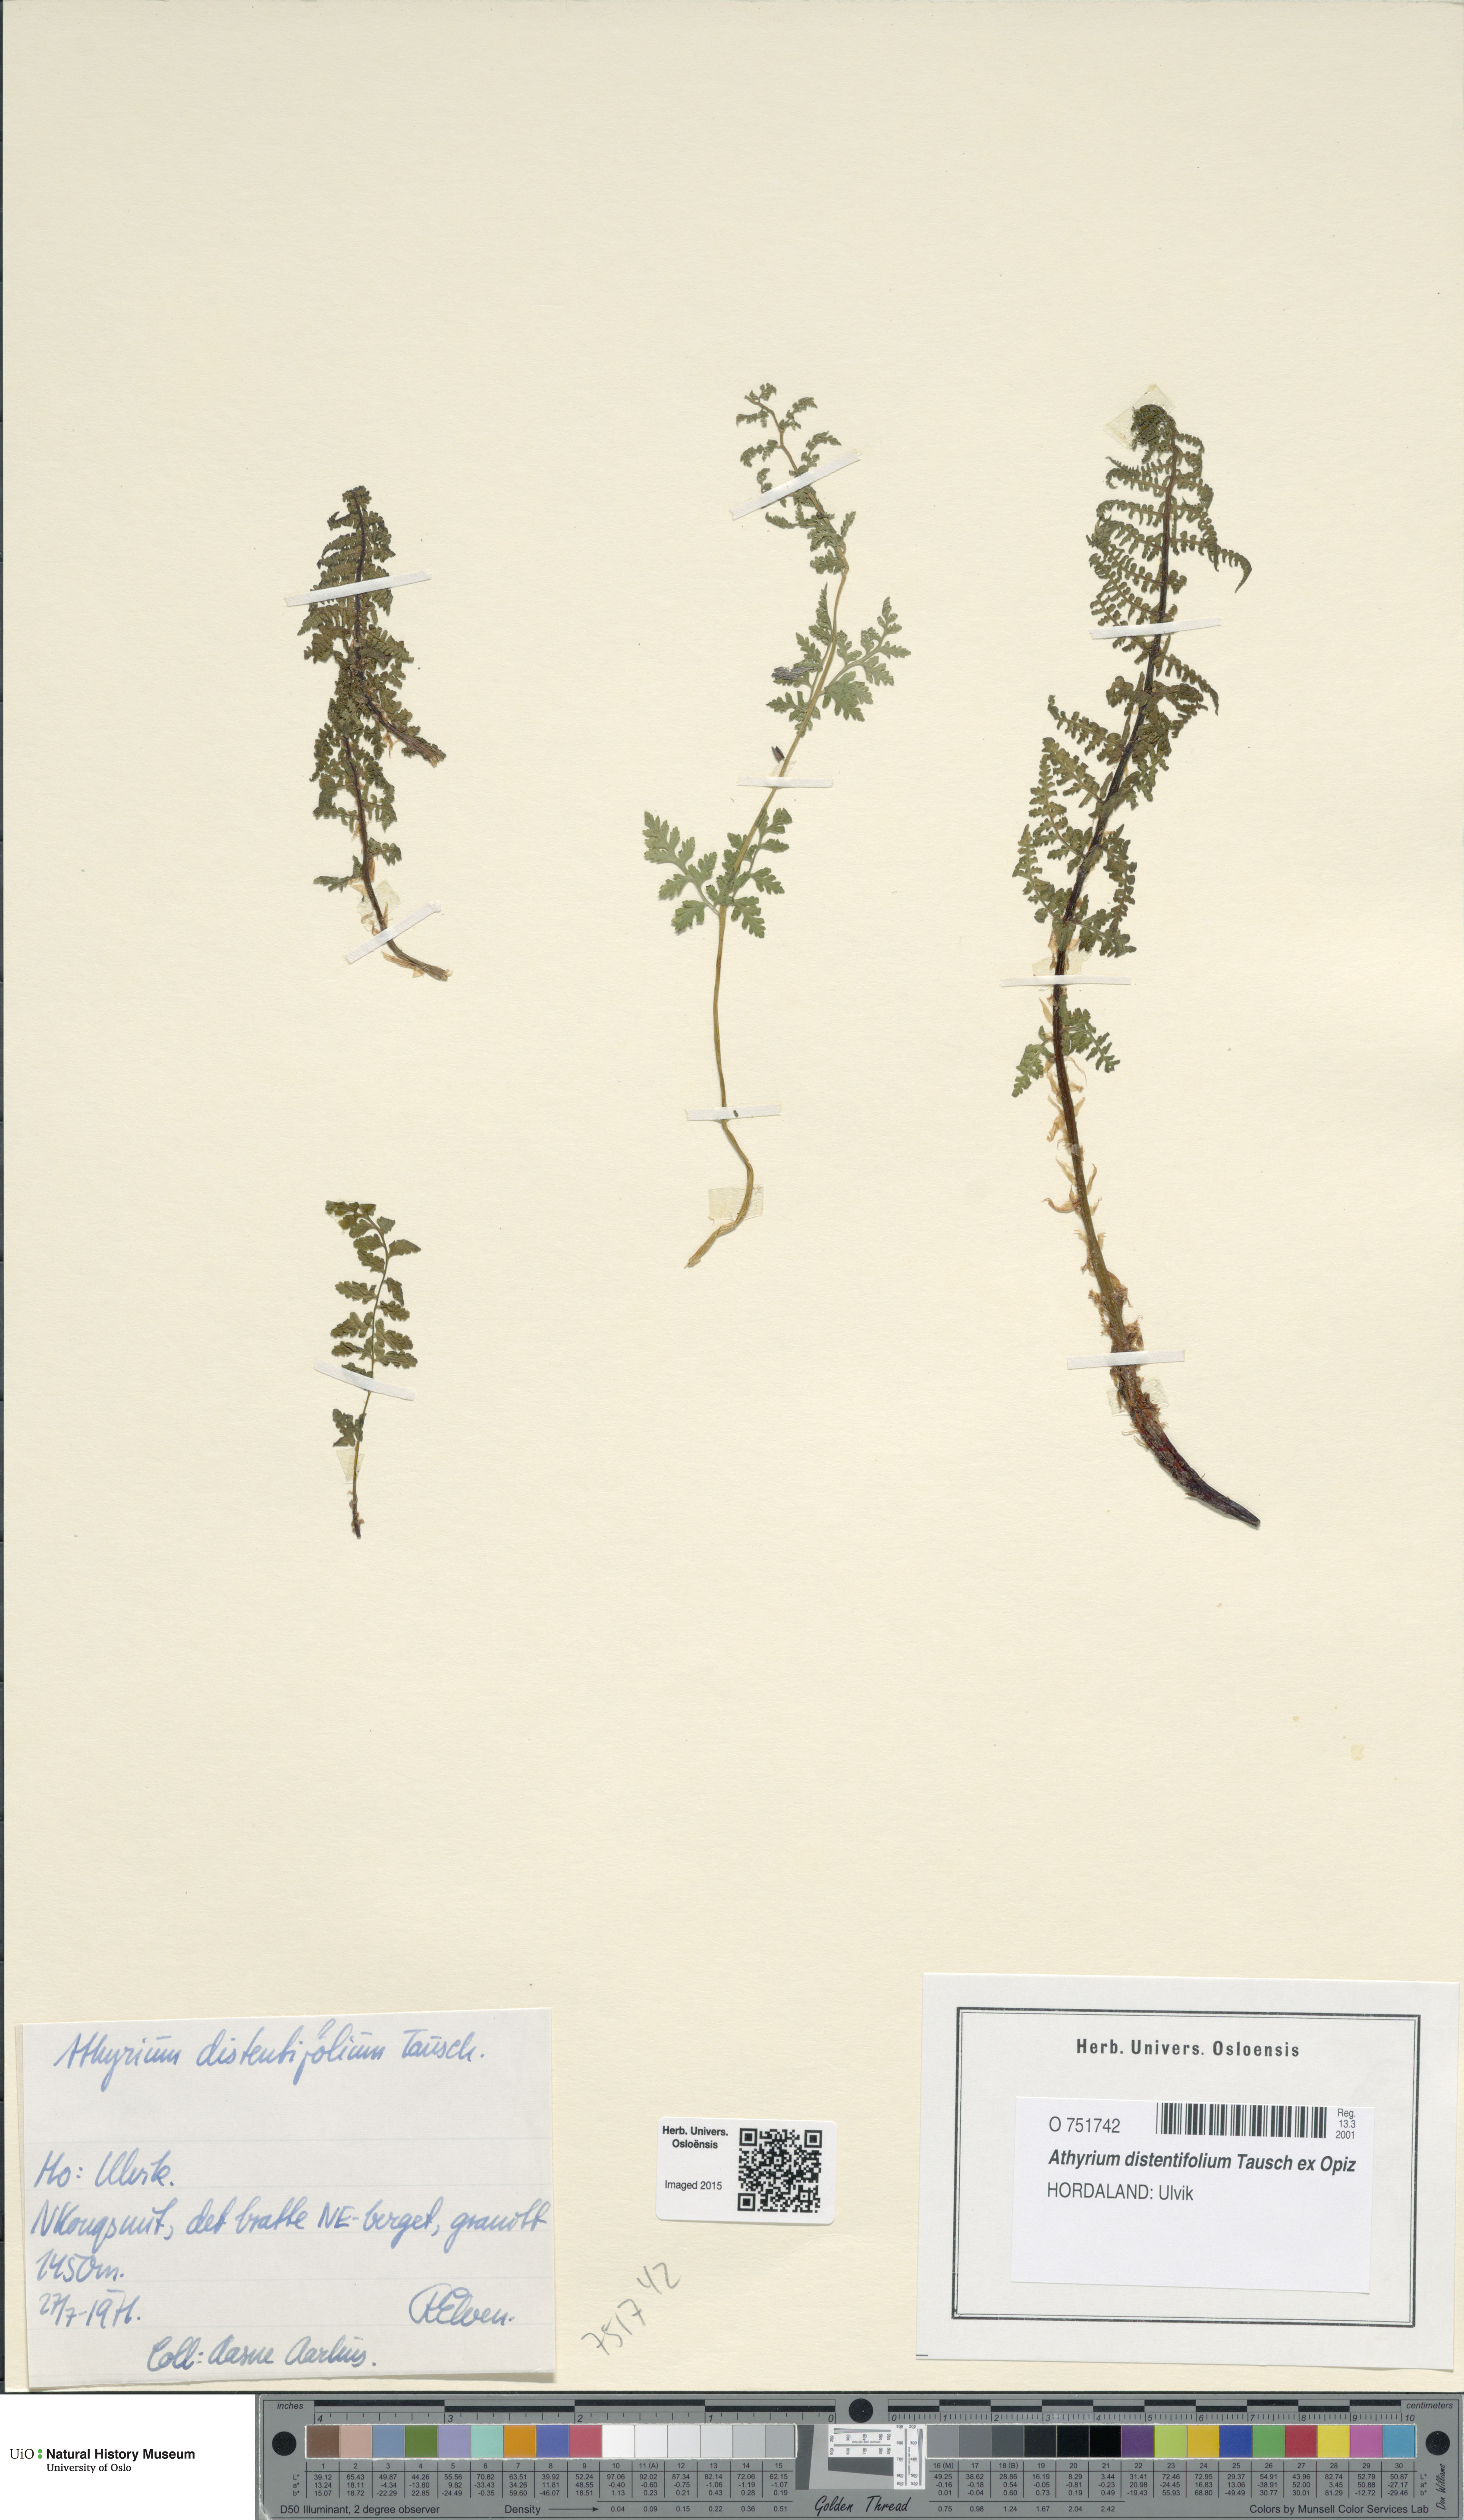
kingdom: Plantae
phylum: Tracheophyta
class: Polypodiopsida
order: Polypodiales
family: Athyriaceae
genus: Pseudathyrium
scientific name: Pseudathyrium alpestre
